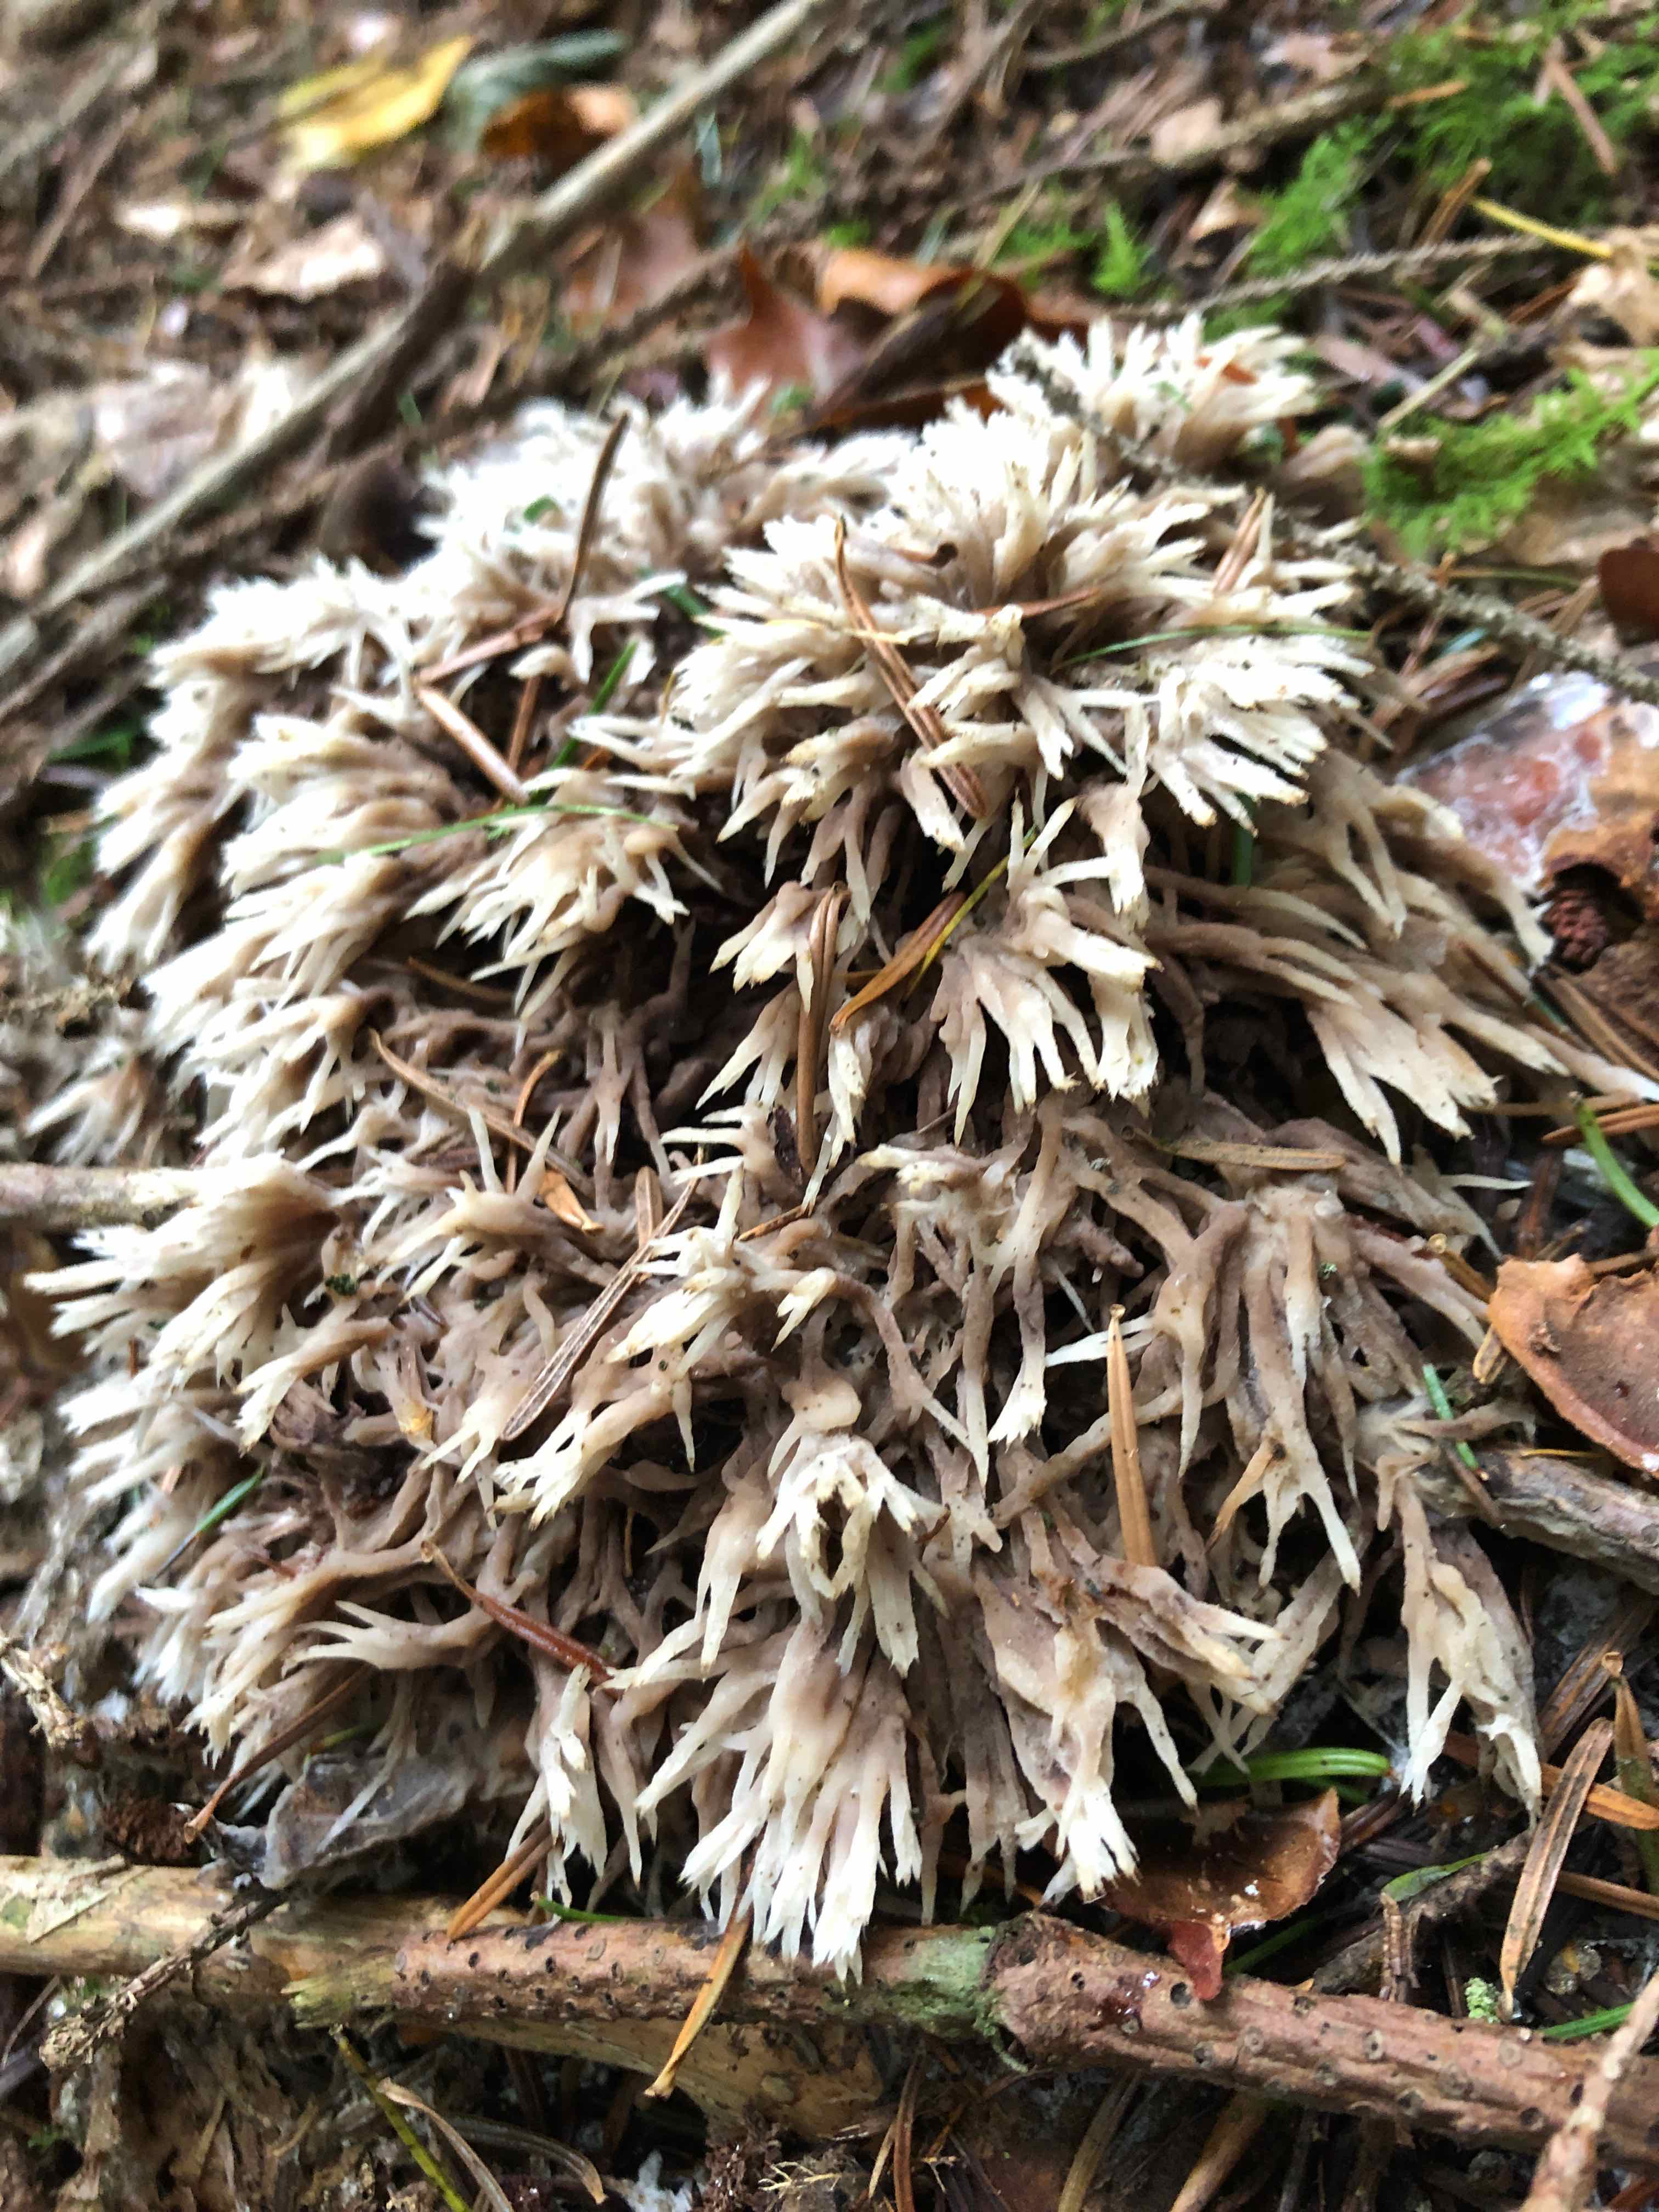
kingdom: Fungi
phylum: Basidiomycota
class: Agaricomycetes
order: Thelephorales
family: Thelephoraceae
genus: Thelephora
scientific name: Thelephora penicillata
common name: fladtrådt frynsesvamp
